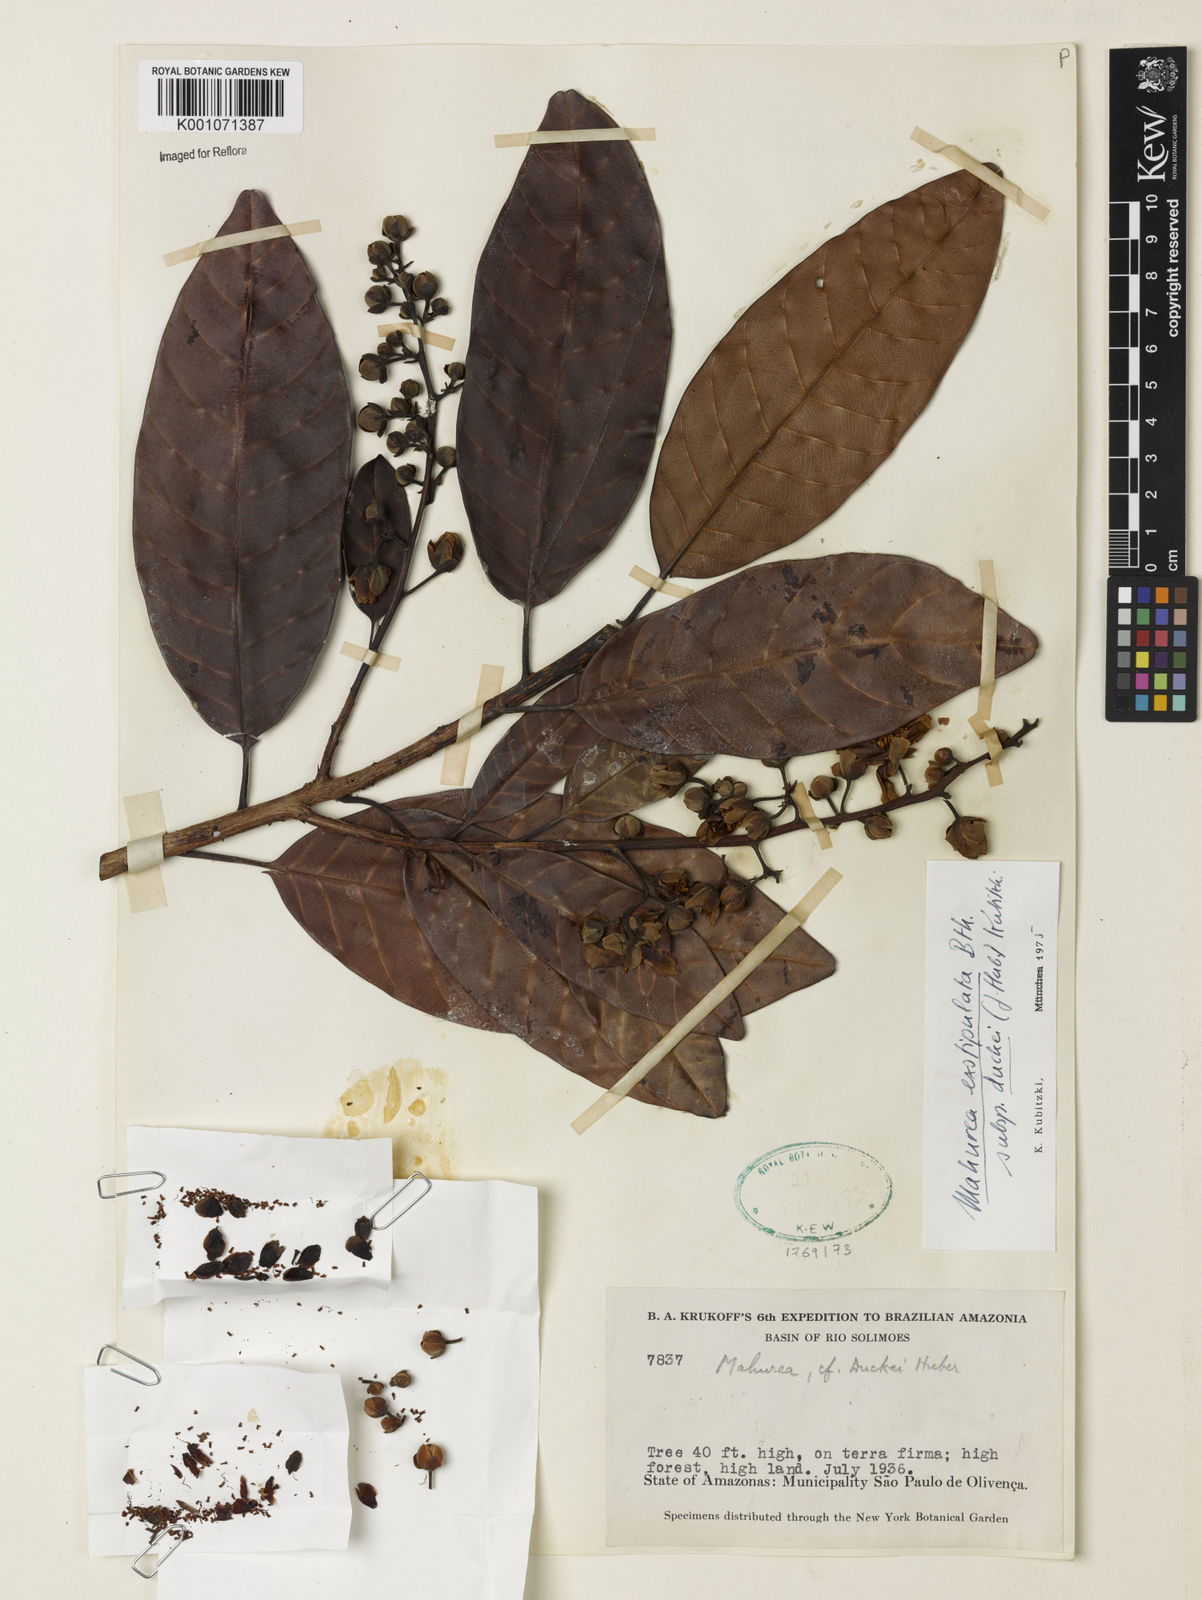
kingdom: Plantae
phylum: Tracheophyta
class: Magnoliopsida
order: Malpighiales
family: Calophyllaceae
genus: Mahurea
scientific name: Mahurea exstipulata
